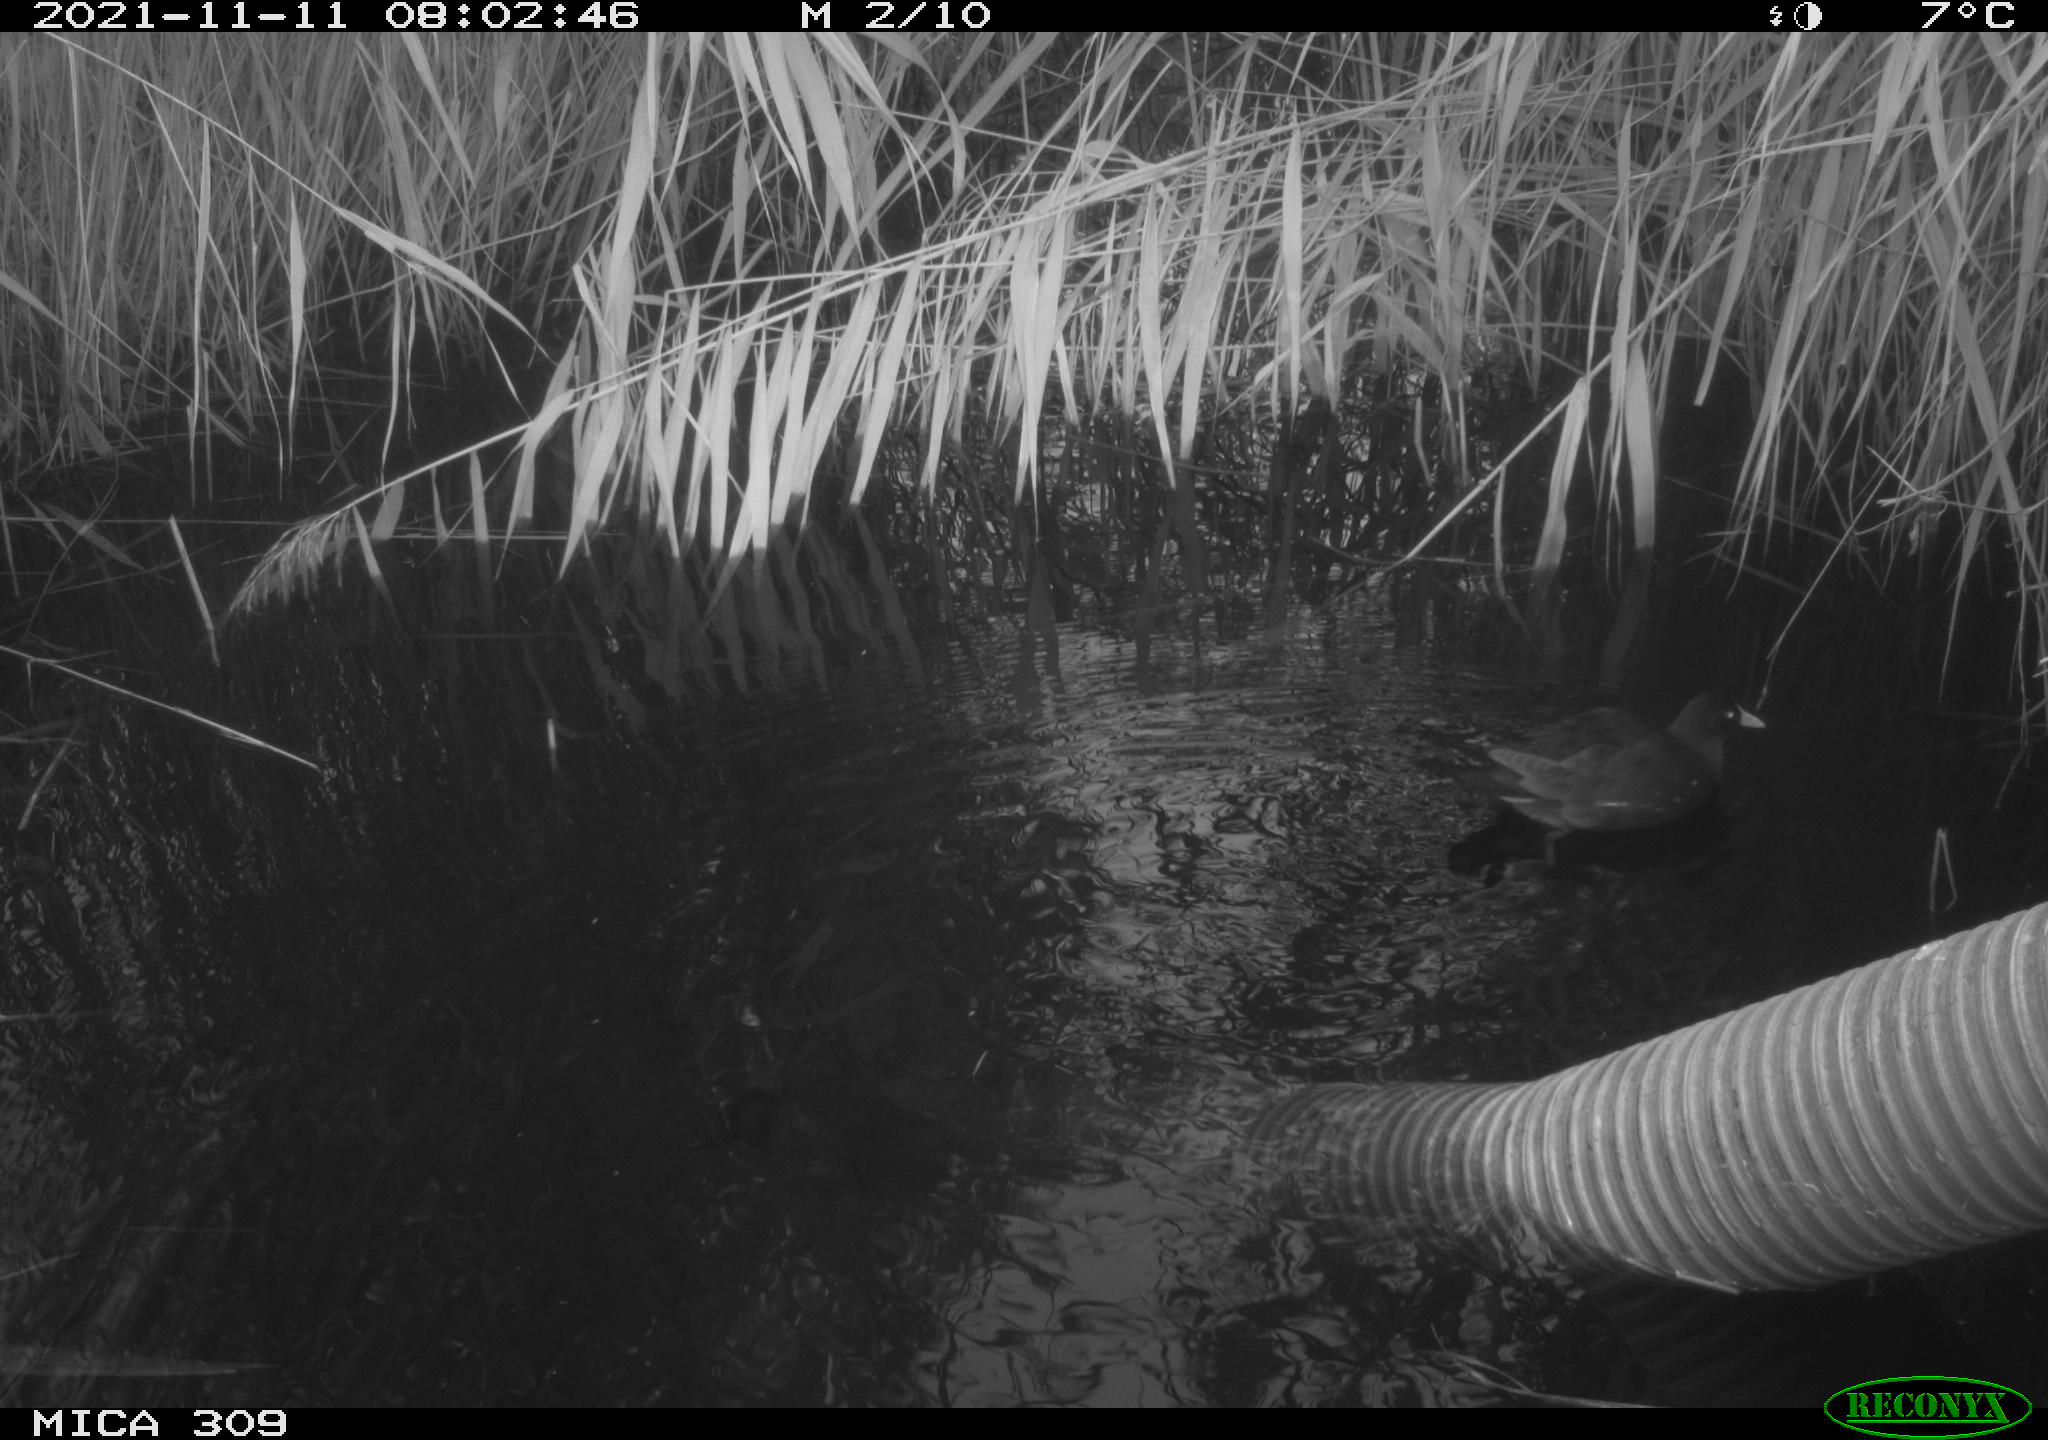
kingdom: Animalia
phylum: Chordata
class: Aves
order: Gruiformes
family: Rallidae
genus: Gallinula
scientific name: Gallinula chloropus
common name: Common moorhen
